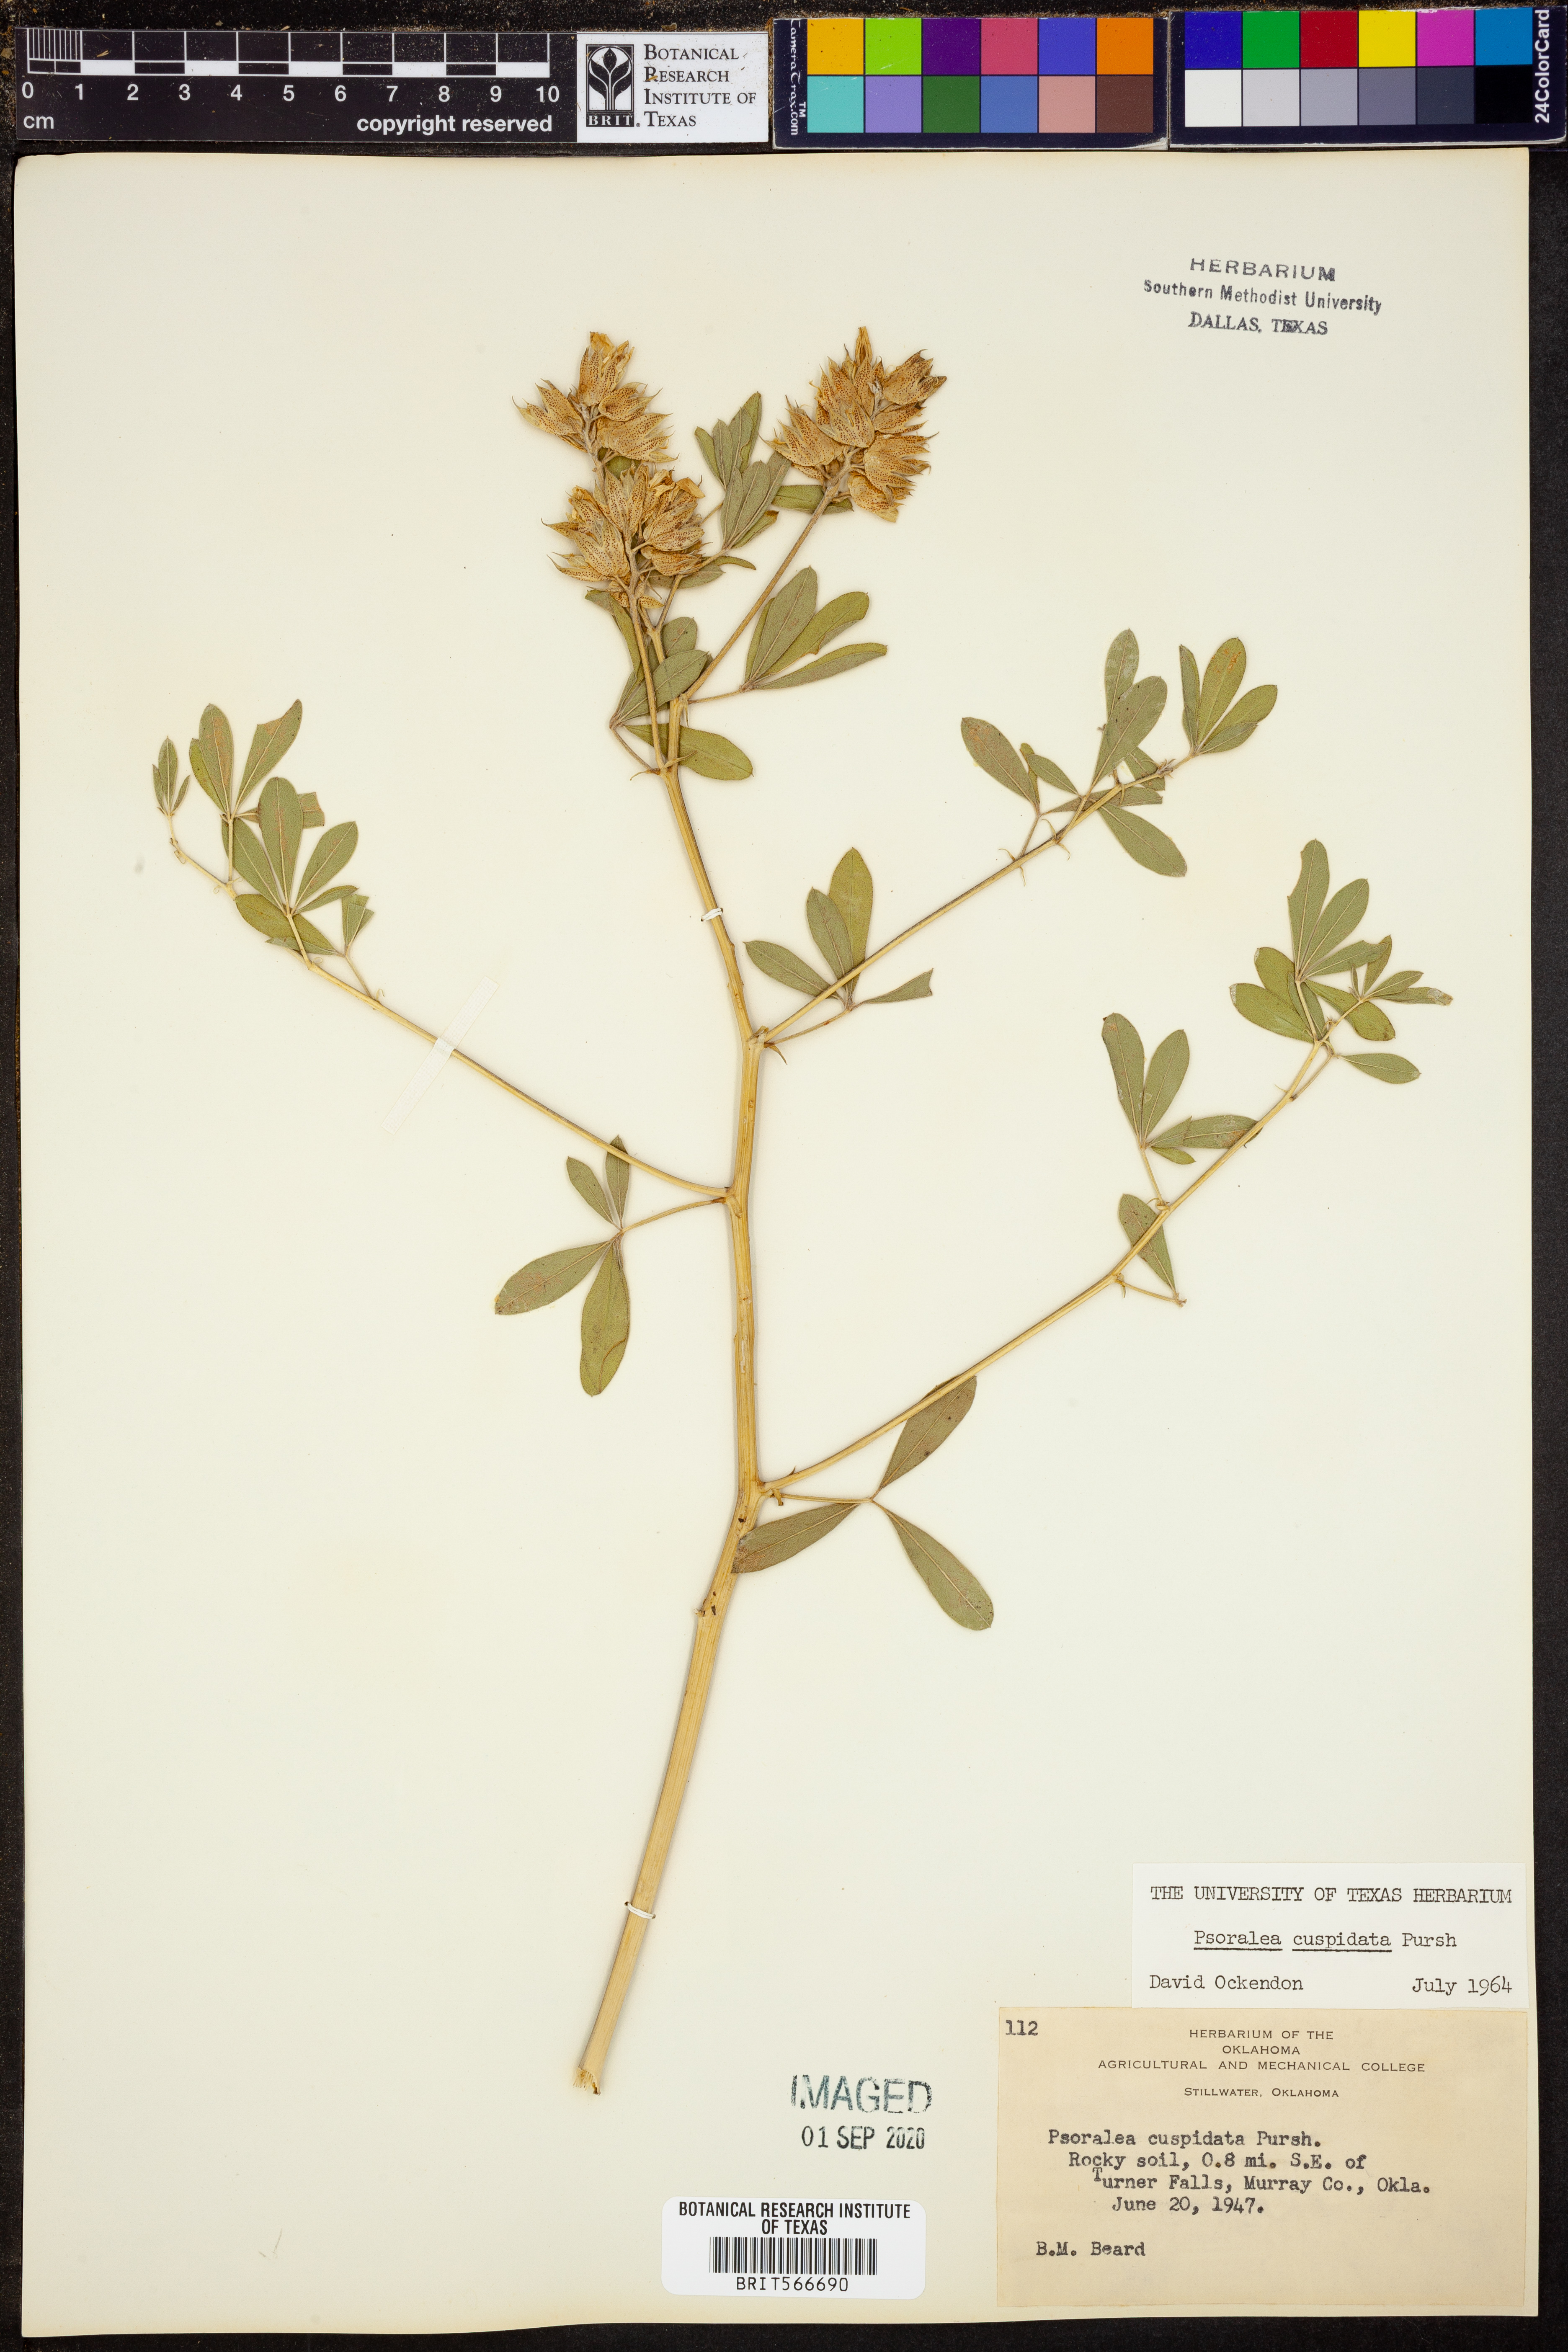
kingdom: Plantae
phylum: Tracheophyta
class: Magnoliopsida
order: Fabales
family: Fabaceae
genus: Pediomelum
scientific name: Pediomelum cuspidatum
